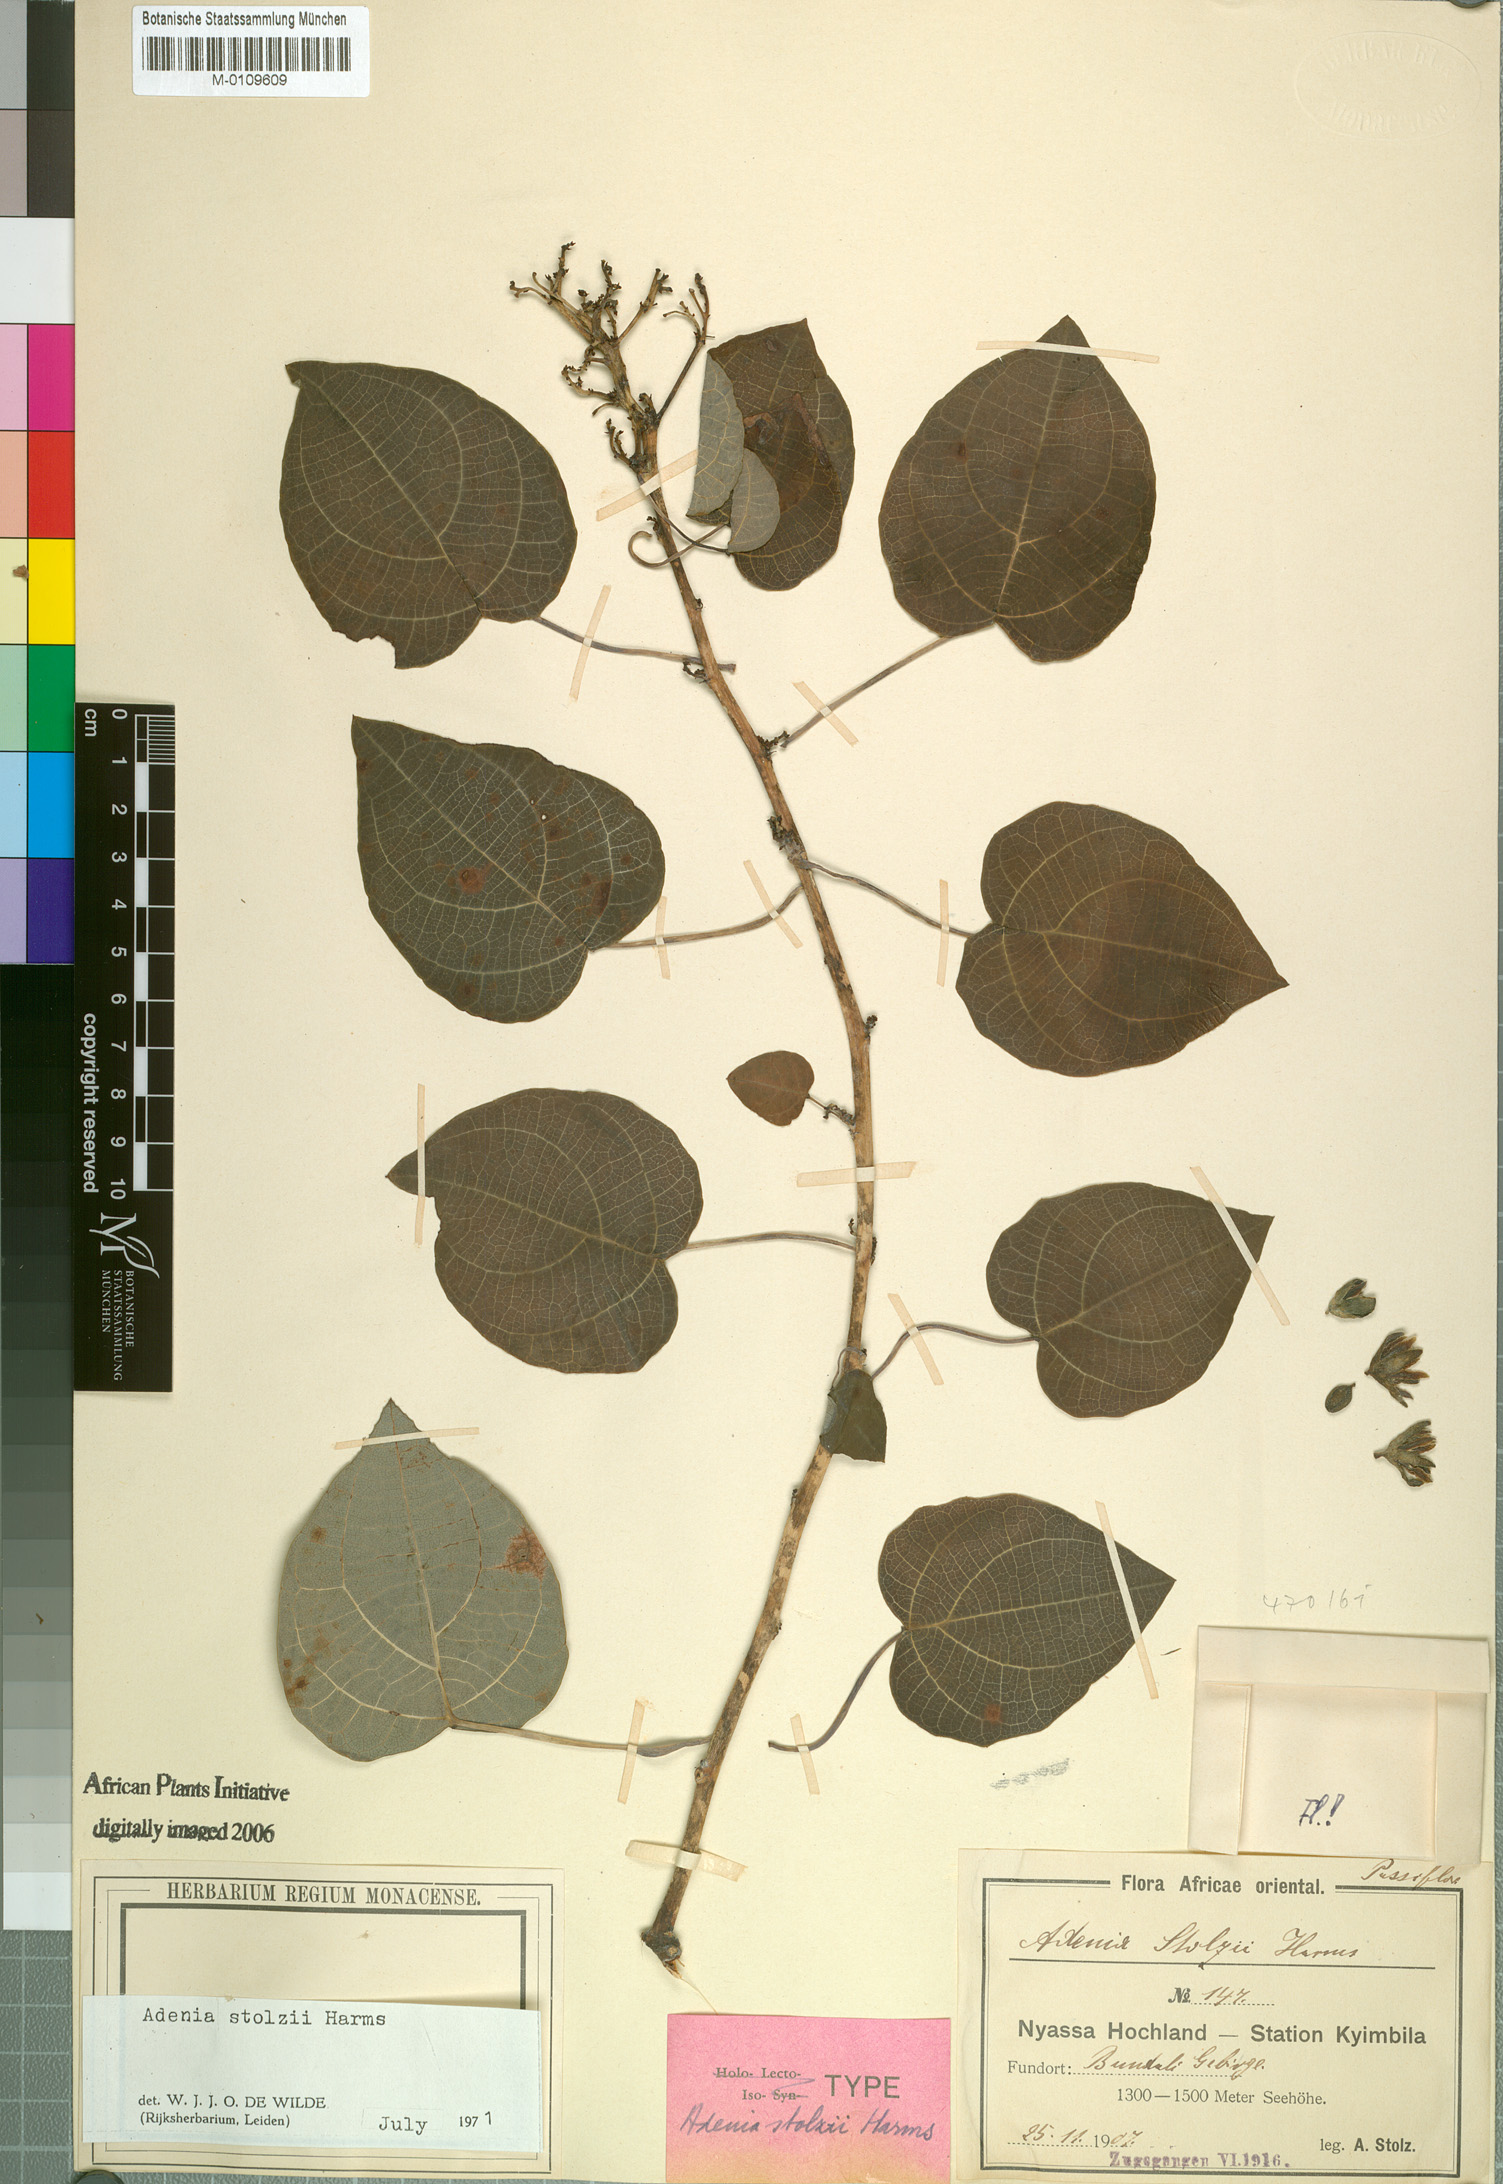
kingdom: Plantae
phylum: Tracheophyta
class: Magnoliopsida
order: Malpighiales
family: Passifloraceae
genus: Adenia
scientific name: Adenia stolzii
